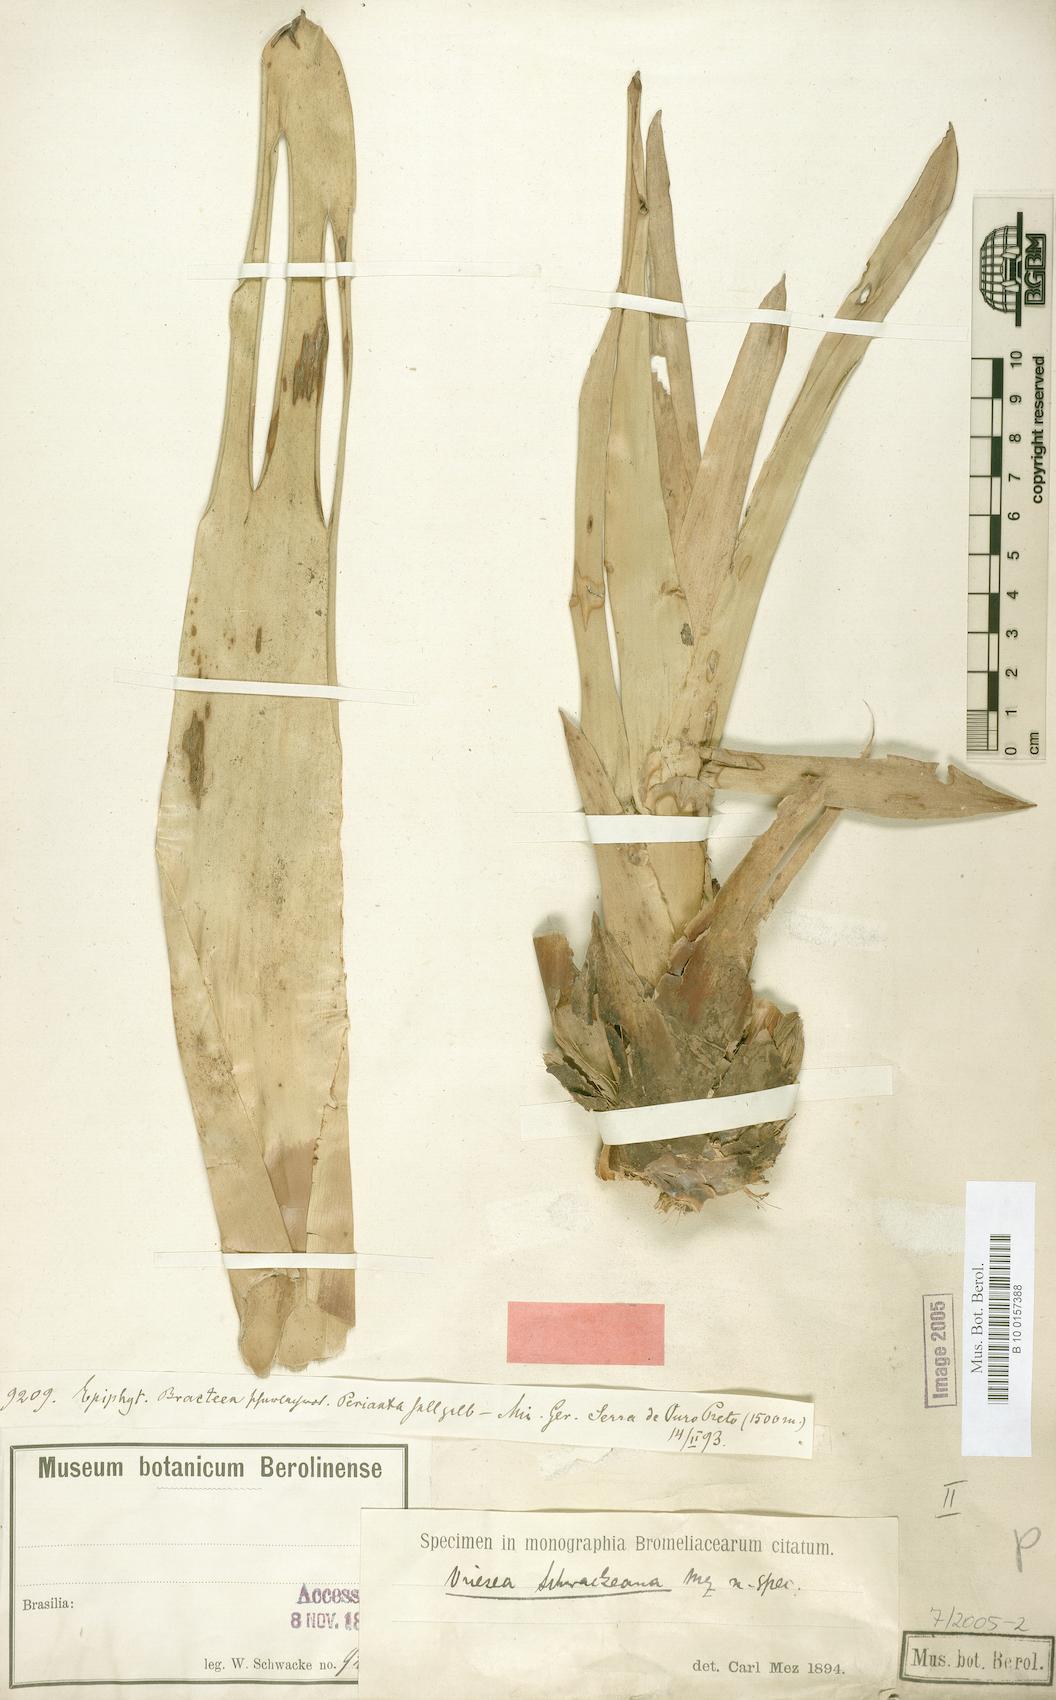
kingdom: Plantae
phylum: Tracheophyta
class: Liliopsida
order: Poales
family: Bromeliaceae
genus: Vriesea
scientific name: Vriesea schwackeana
